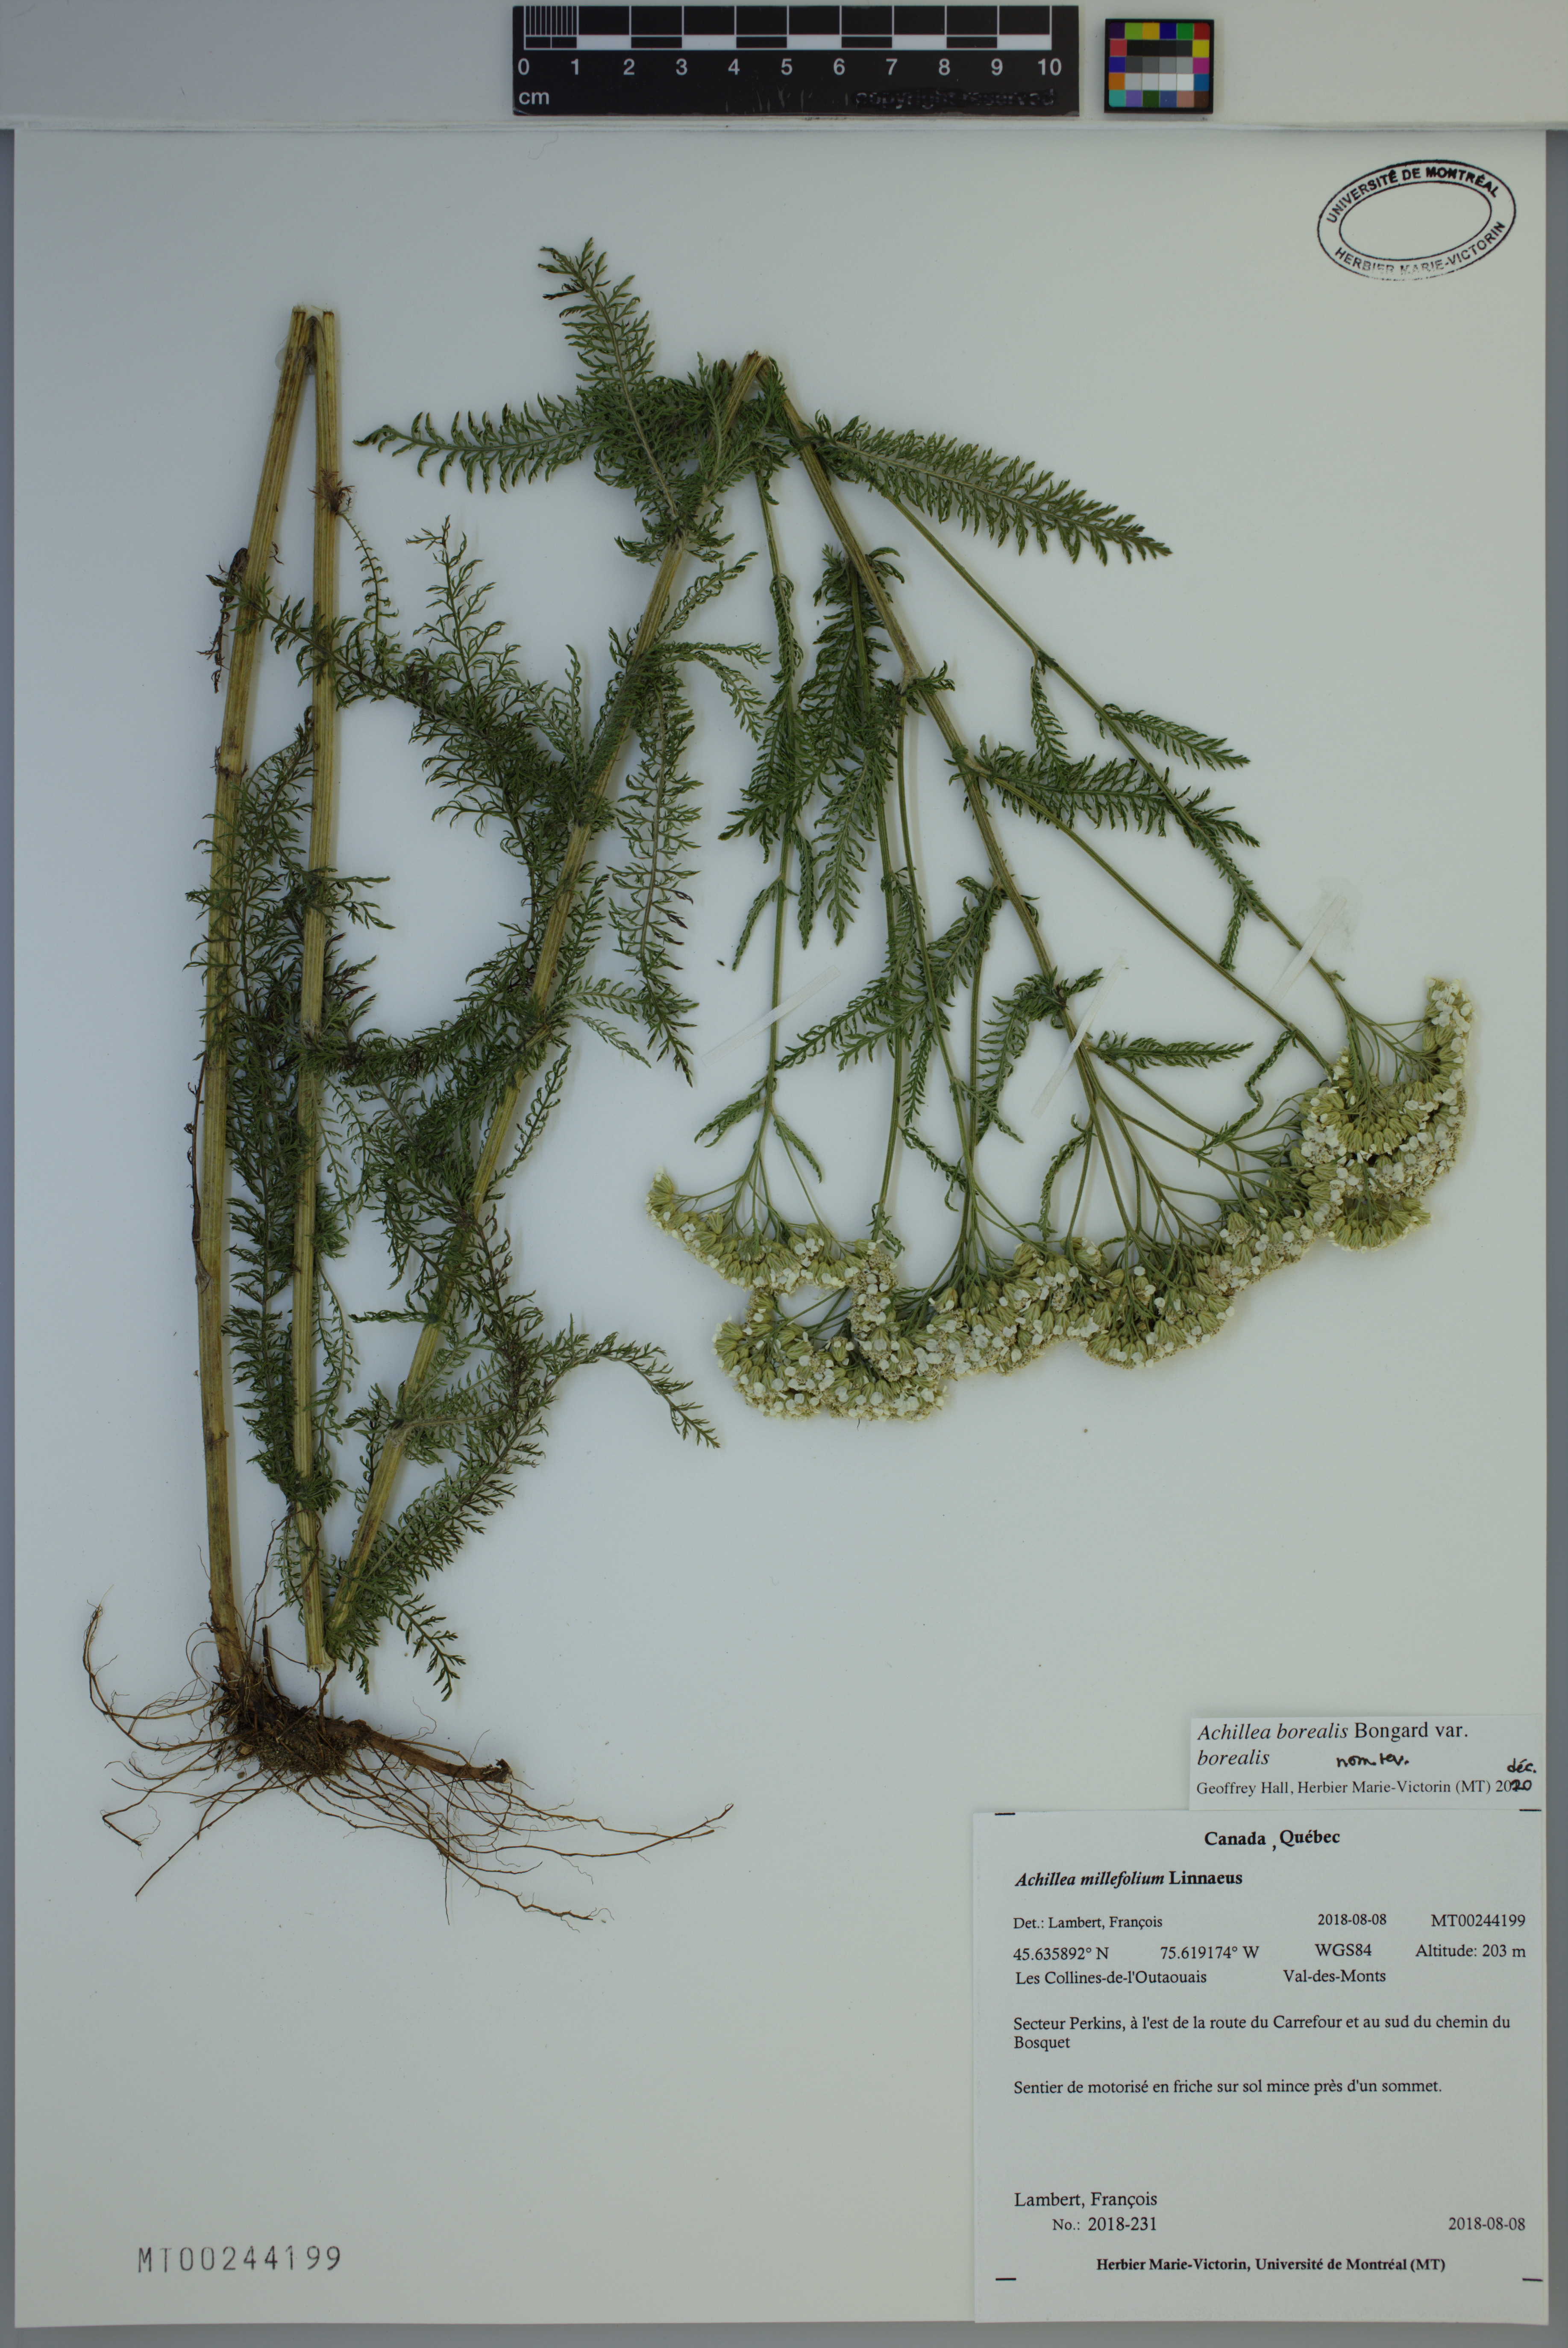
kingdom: Plantae
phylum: Tracheophyta
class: Magnoliopsida
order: Asterales
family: Asteraceae
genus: Achillea
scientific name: Achillea millefolium
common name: Yarrow
